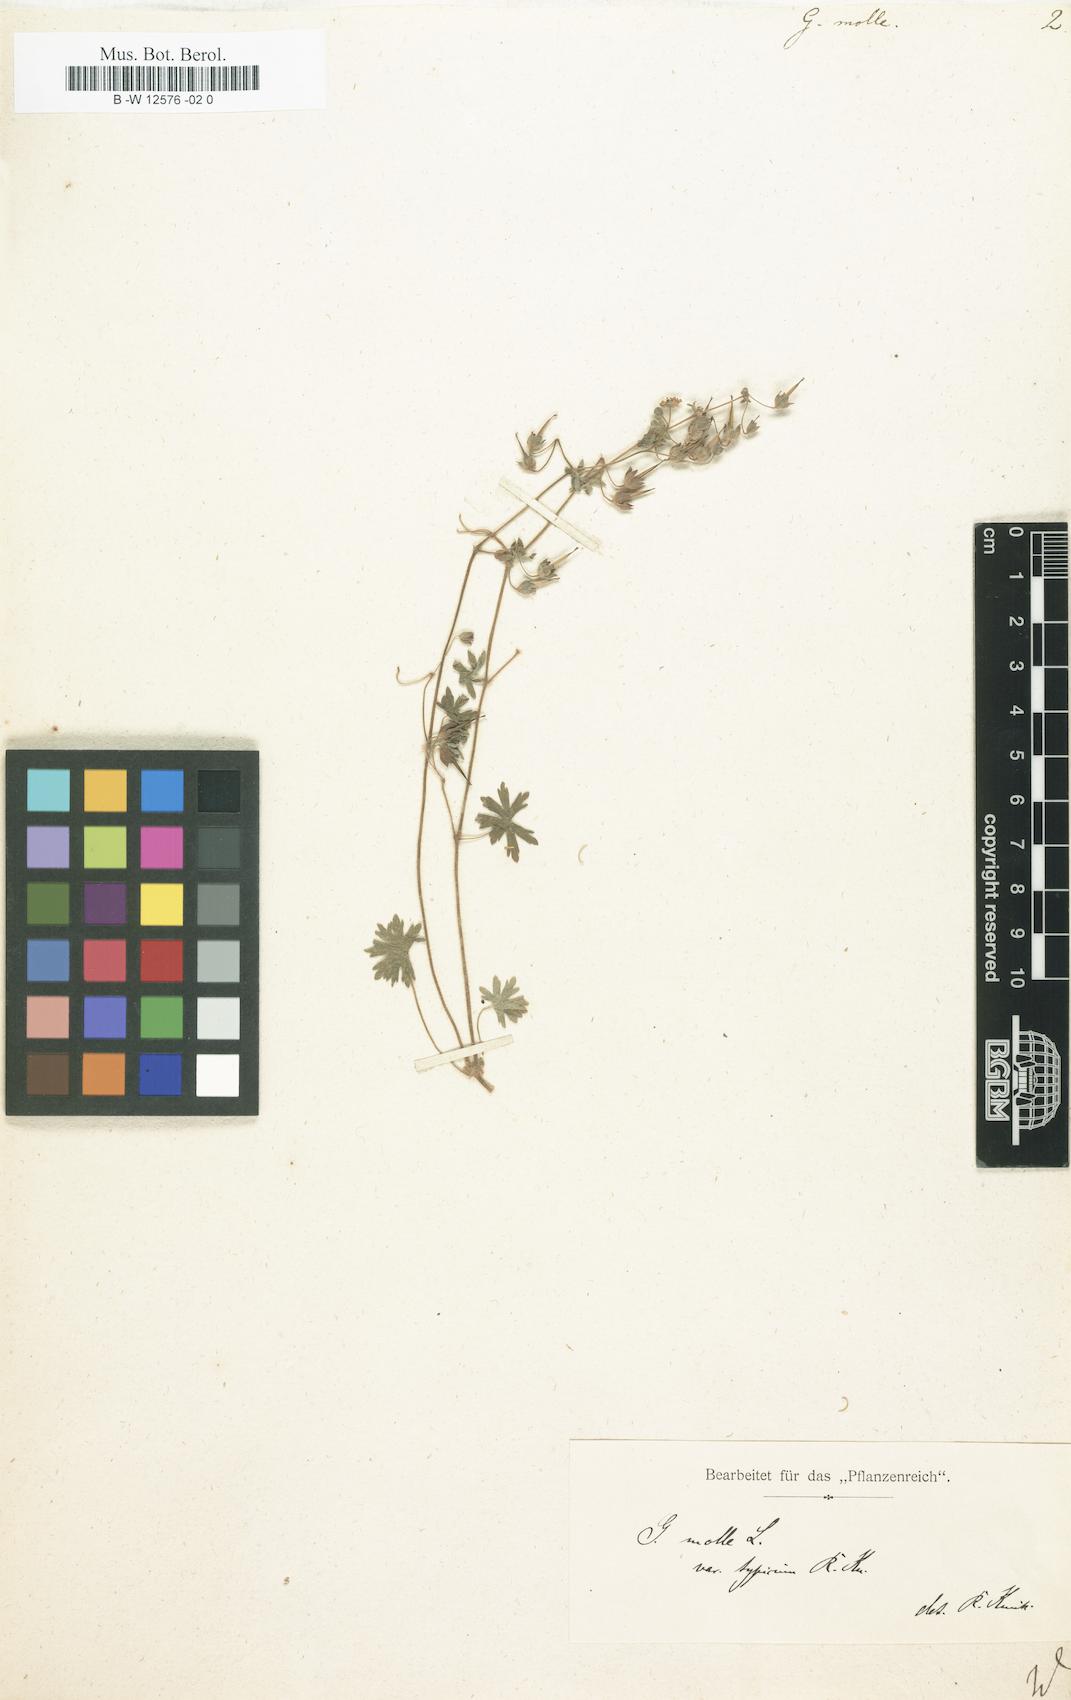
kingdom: Plantae
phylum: Tracheophyta
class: Magnoliopsida
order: Geraniales
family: Geraniaceae
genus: Geranium
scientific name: Geranium molle
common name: Dove's-foot crane's-bill
